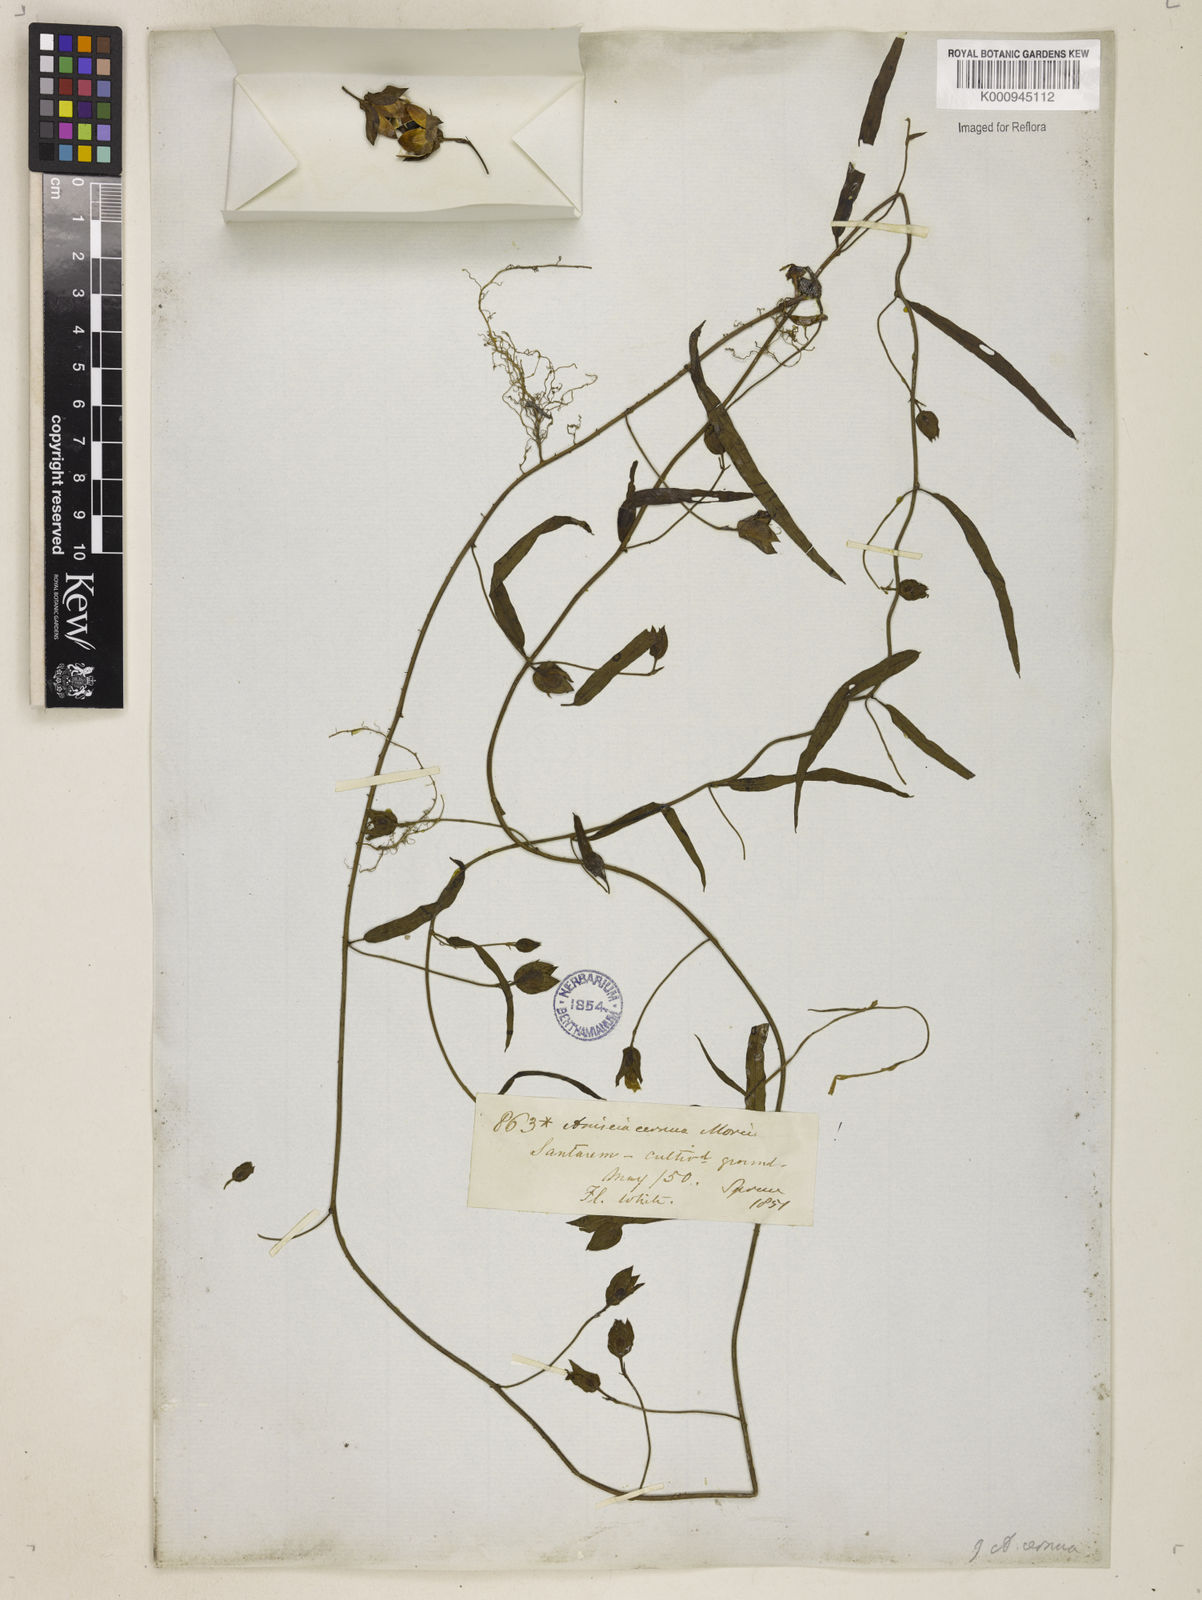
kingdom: Plantae
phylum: Tracheophyta
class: Magnoliopsida
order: Solanales
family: Convolvulaceae
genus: Aniseia
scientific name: Aniseia
